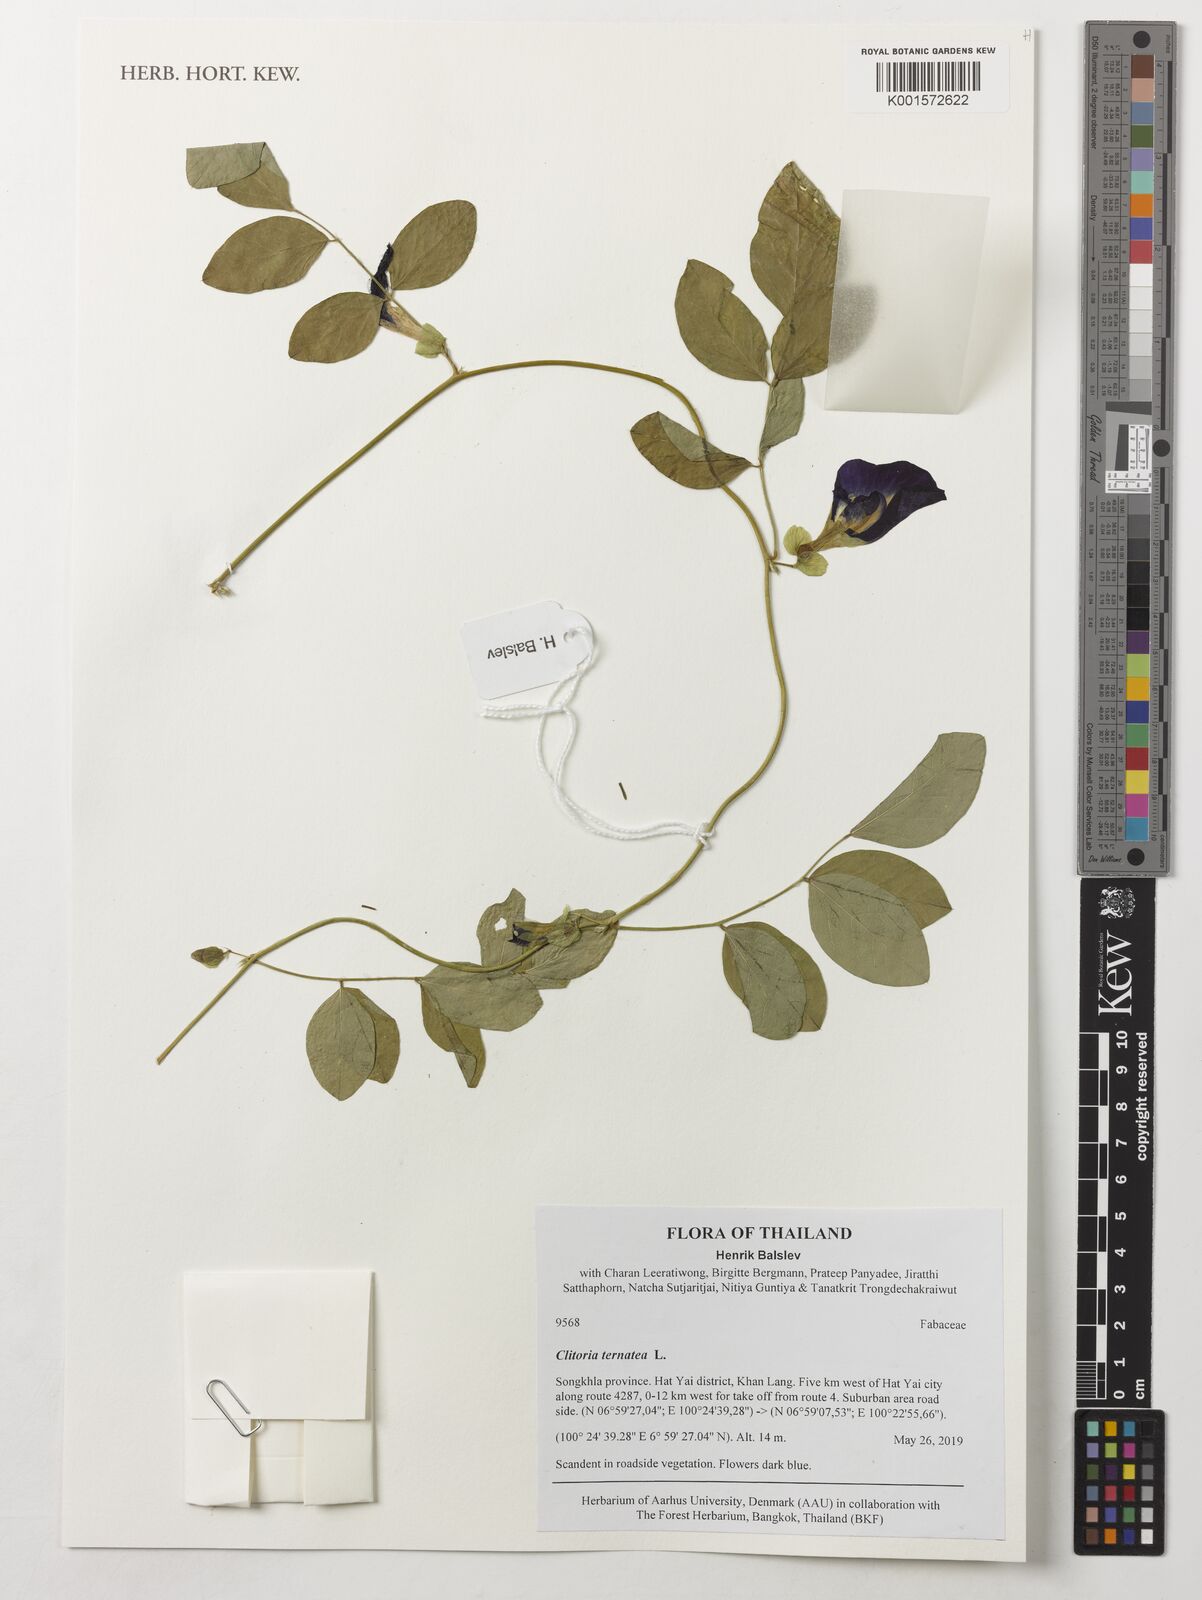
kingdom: Plantae
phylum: Tracheophyta
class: Magnoliopsida
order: Fabales
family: Fabaceae
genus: Clitoria
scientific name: Clitoria ternatea
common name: Asian pigeonwings
